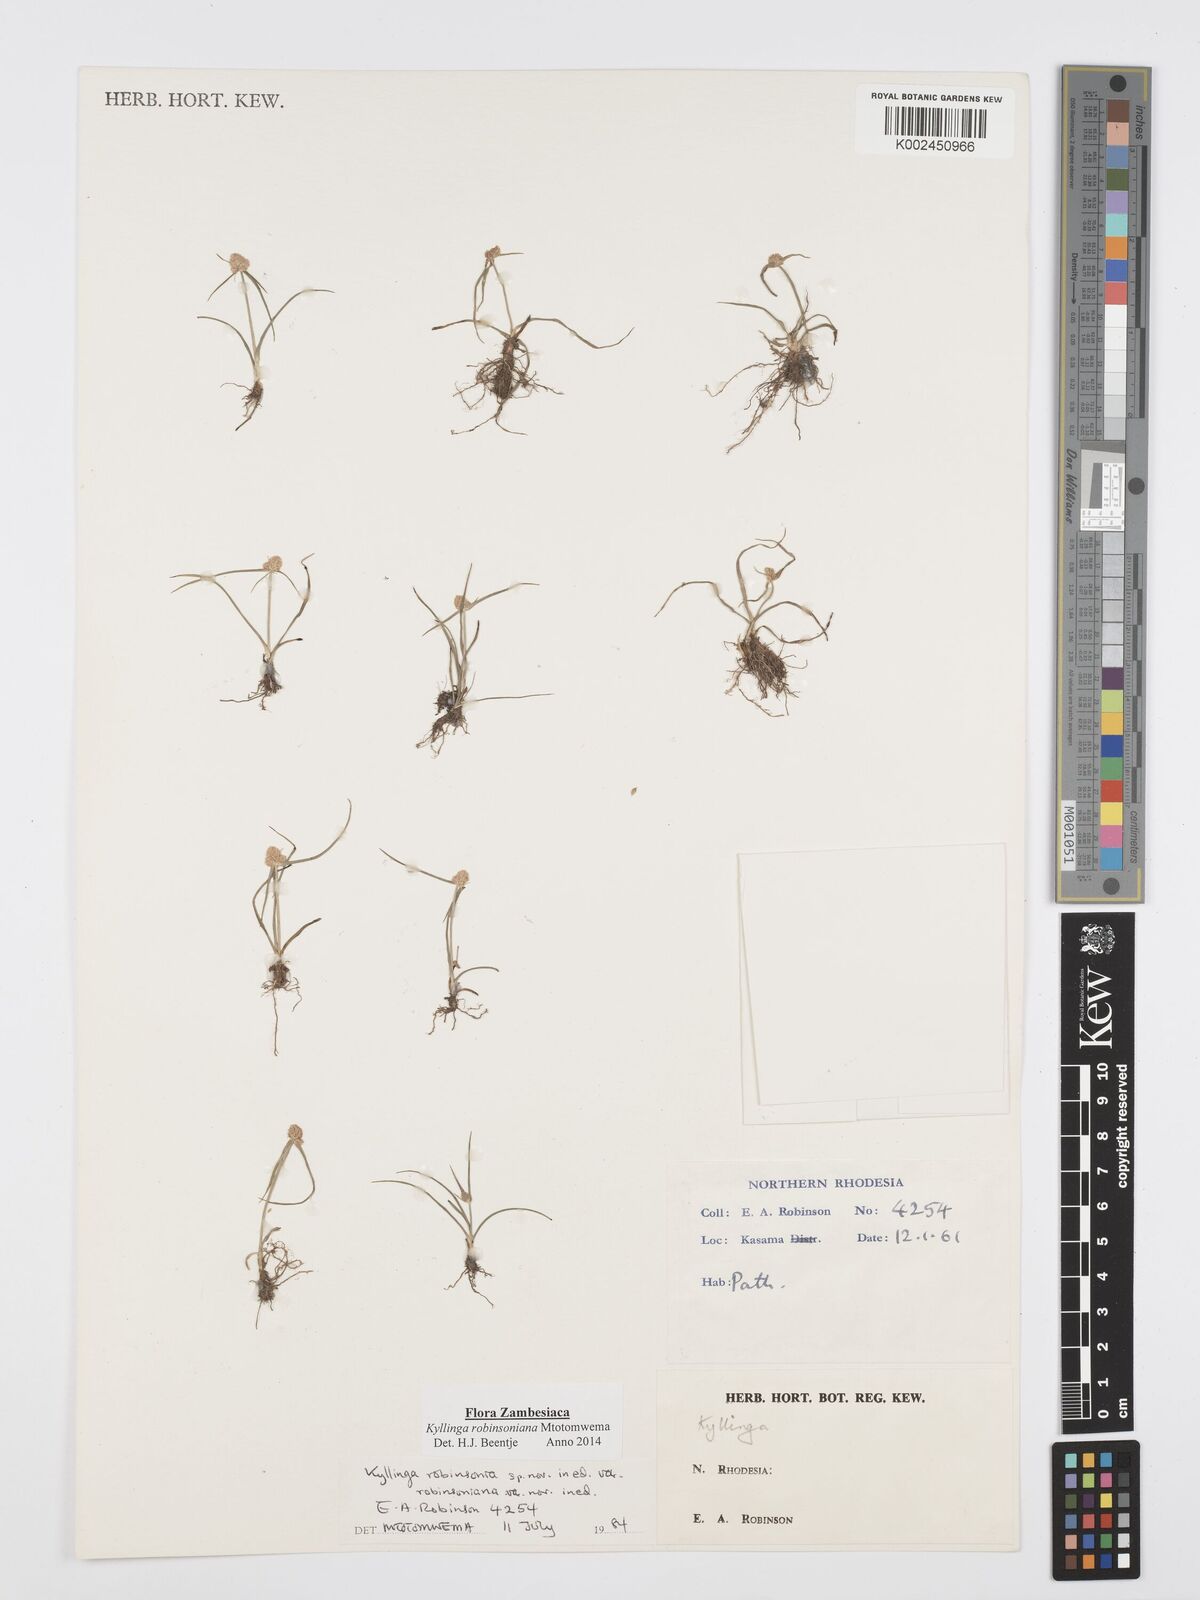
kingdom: Plantae
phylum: Tracheophyta
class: Liliopsida
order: Poales
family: Cyperaceae
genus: Cyperus
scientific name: Cyperus robinsonianus
